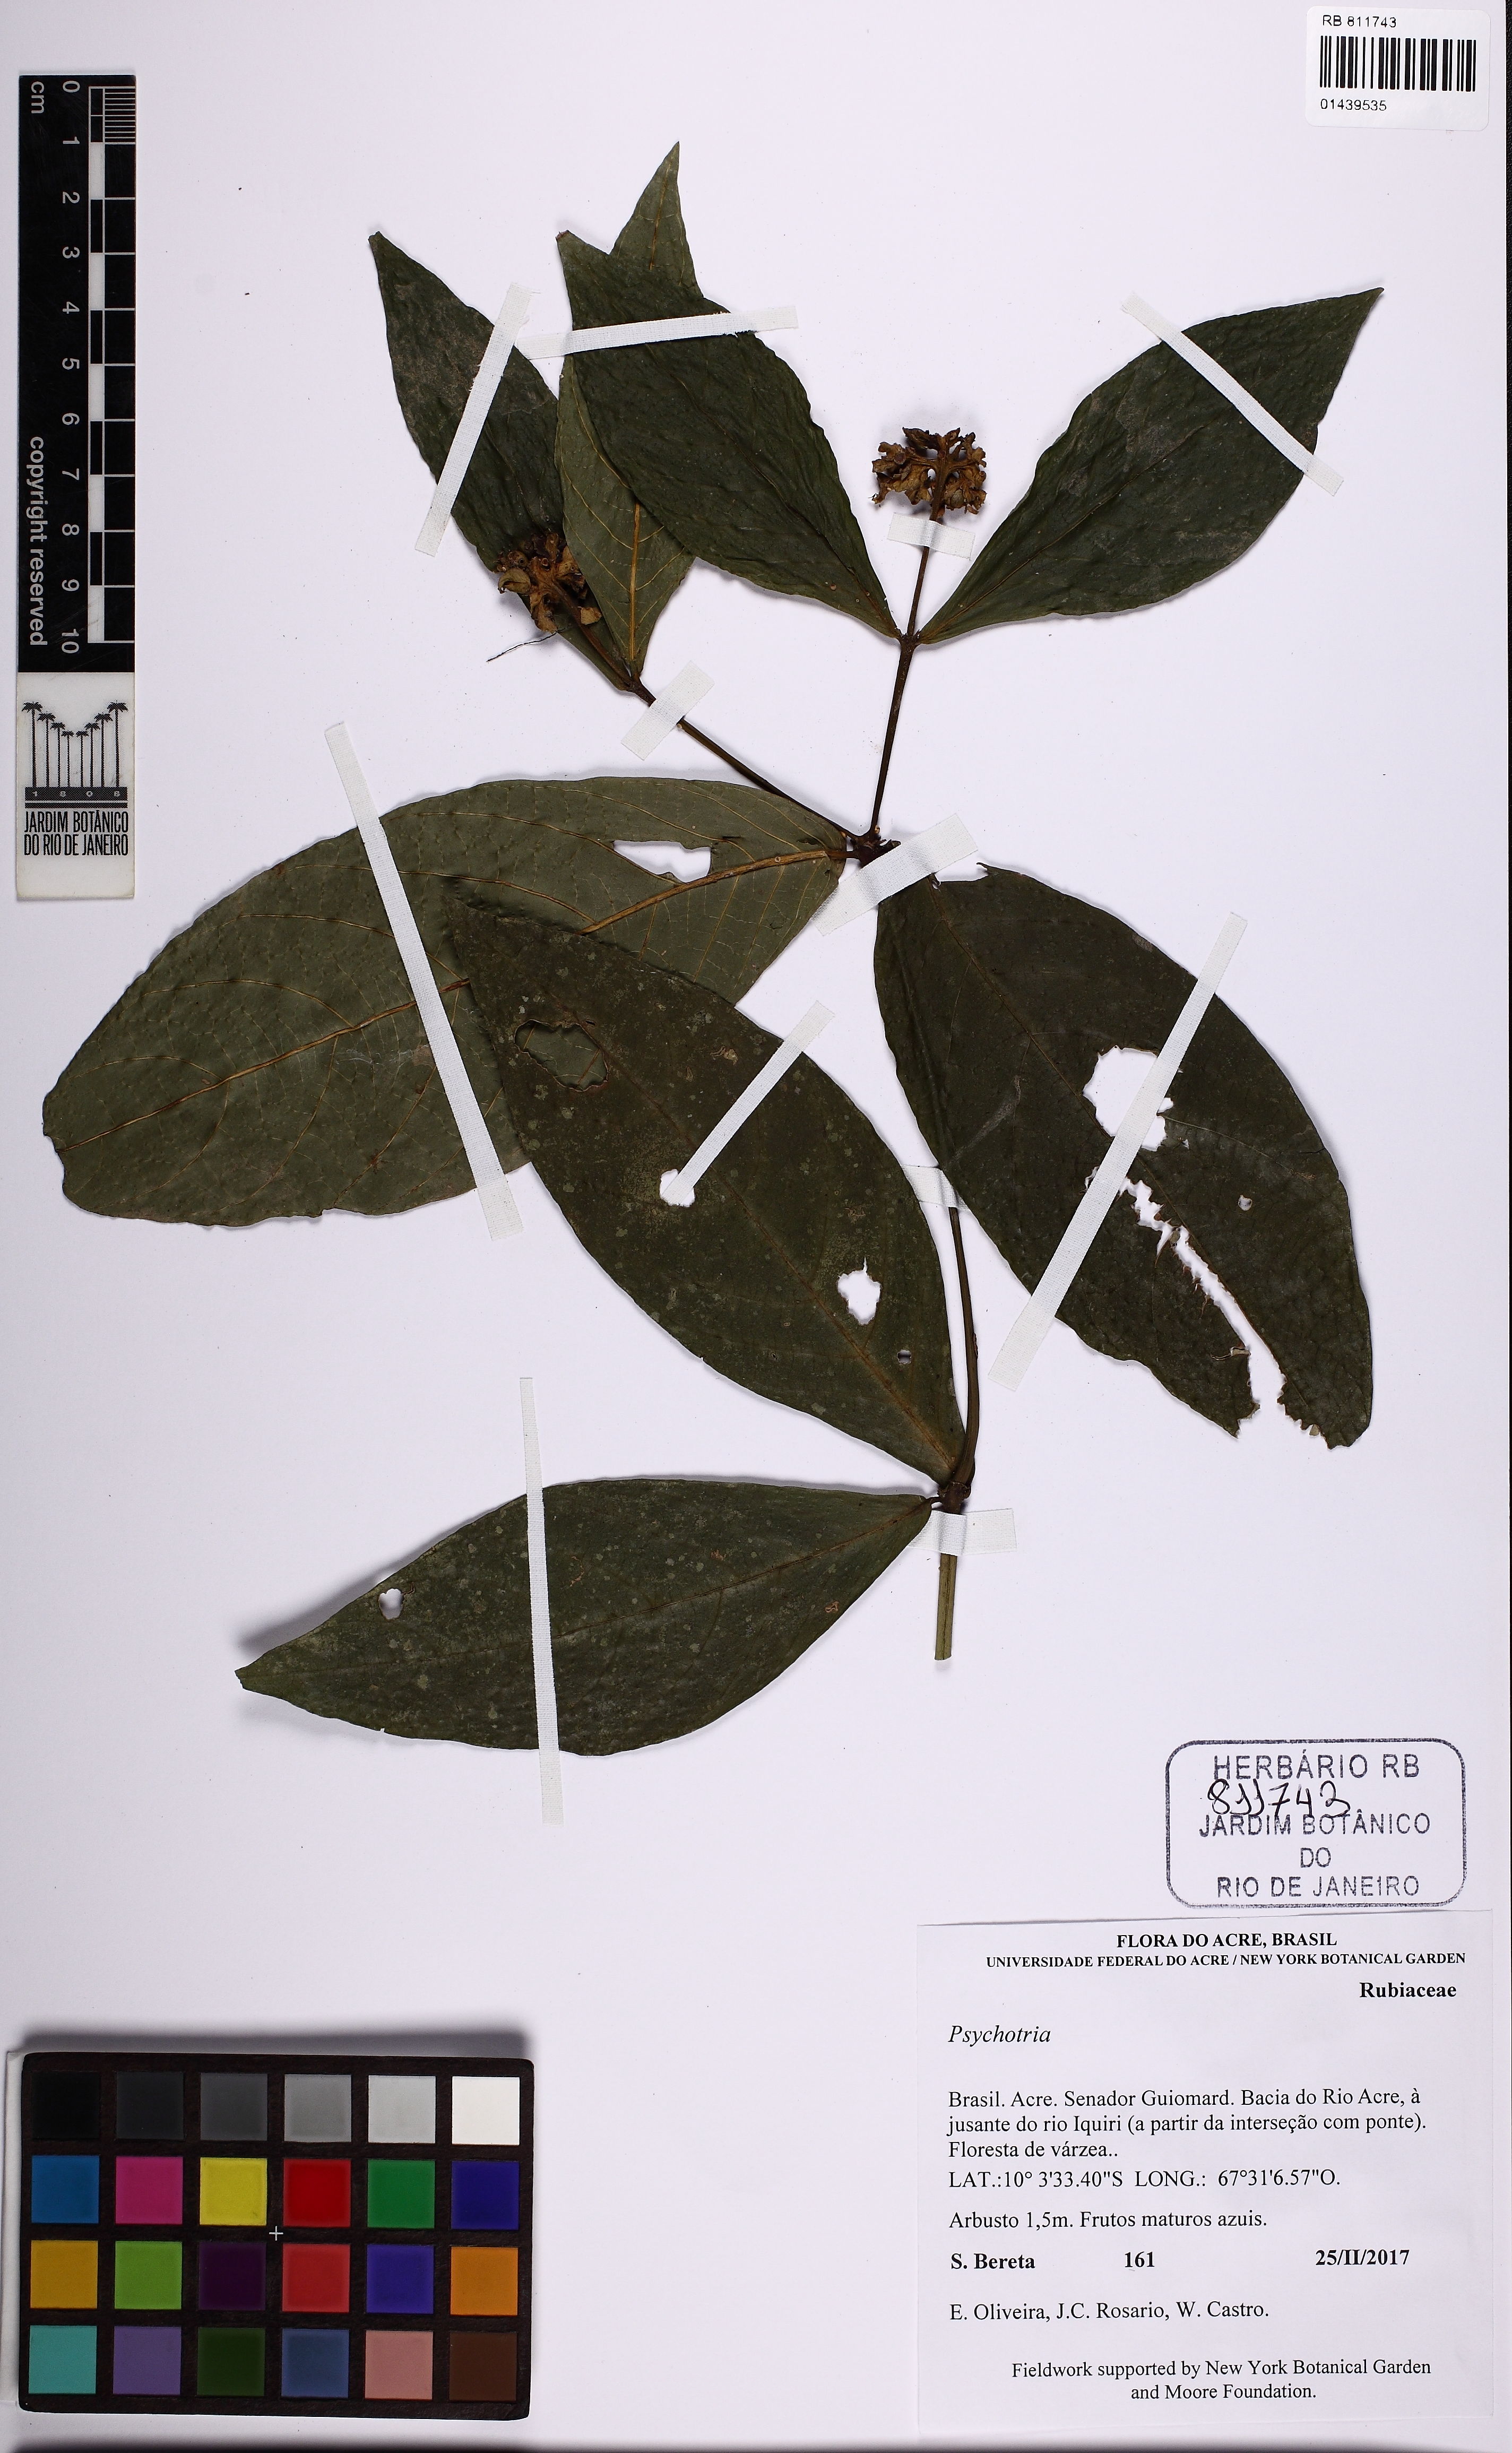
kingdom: Plantae
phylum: Tracheophyta
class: Magnoliopsida
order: Gentianales
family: Rubiaceae
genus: Palicourea
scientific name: Palicourea justiciifolia
